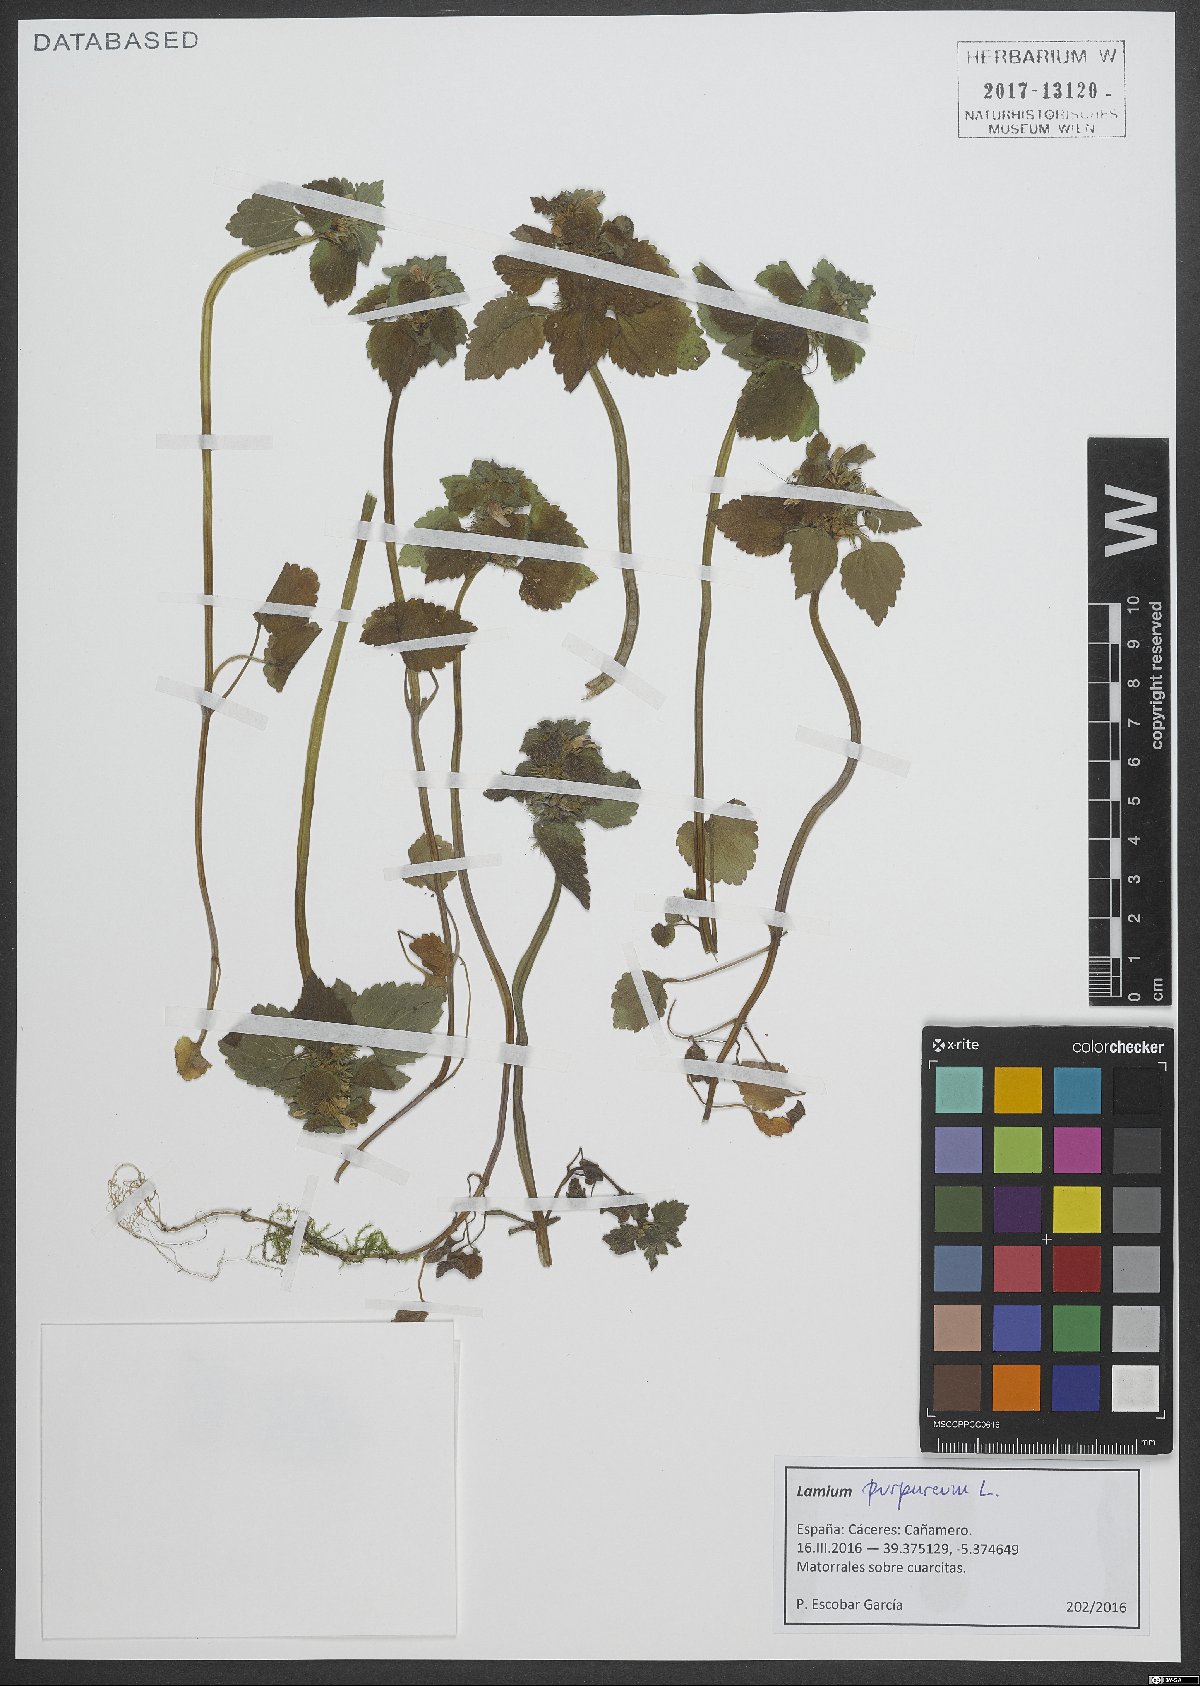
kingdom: Plantae
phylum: Tracheophyta
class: Magnoliopsida
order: Lamiales
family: Lamiaceae
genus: Lamium
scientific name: Lamium purpureum
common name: Red dead-nettle
